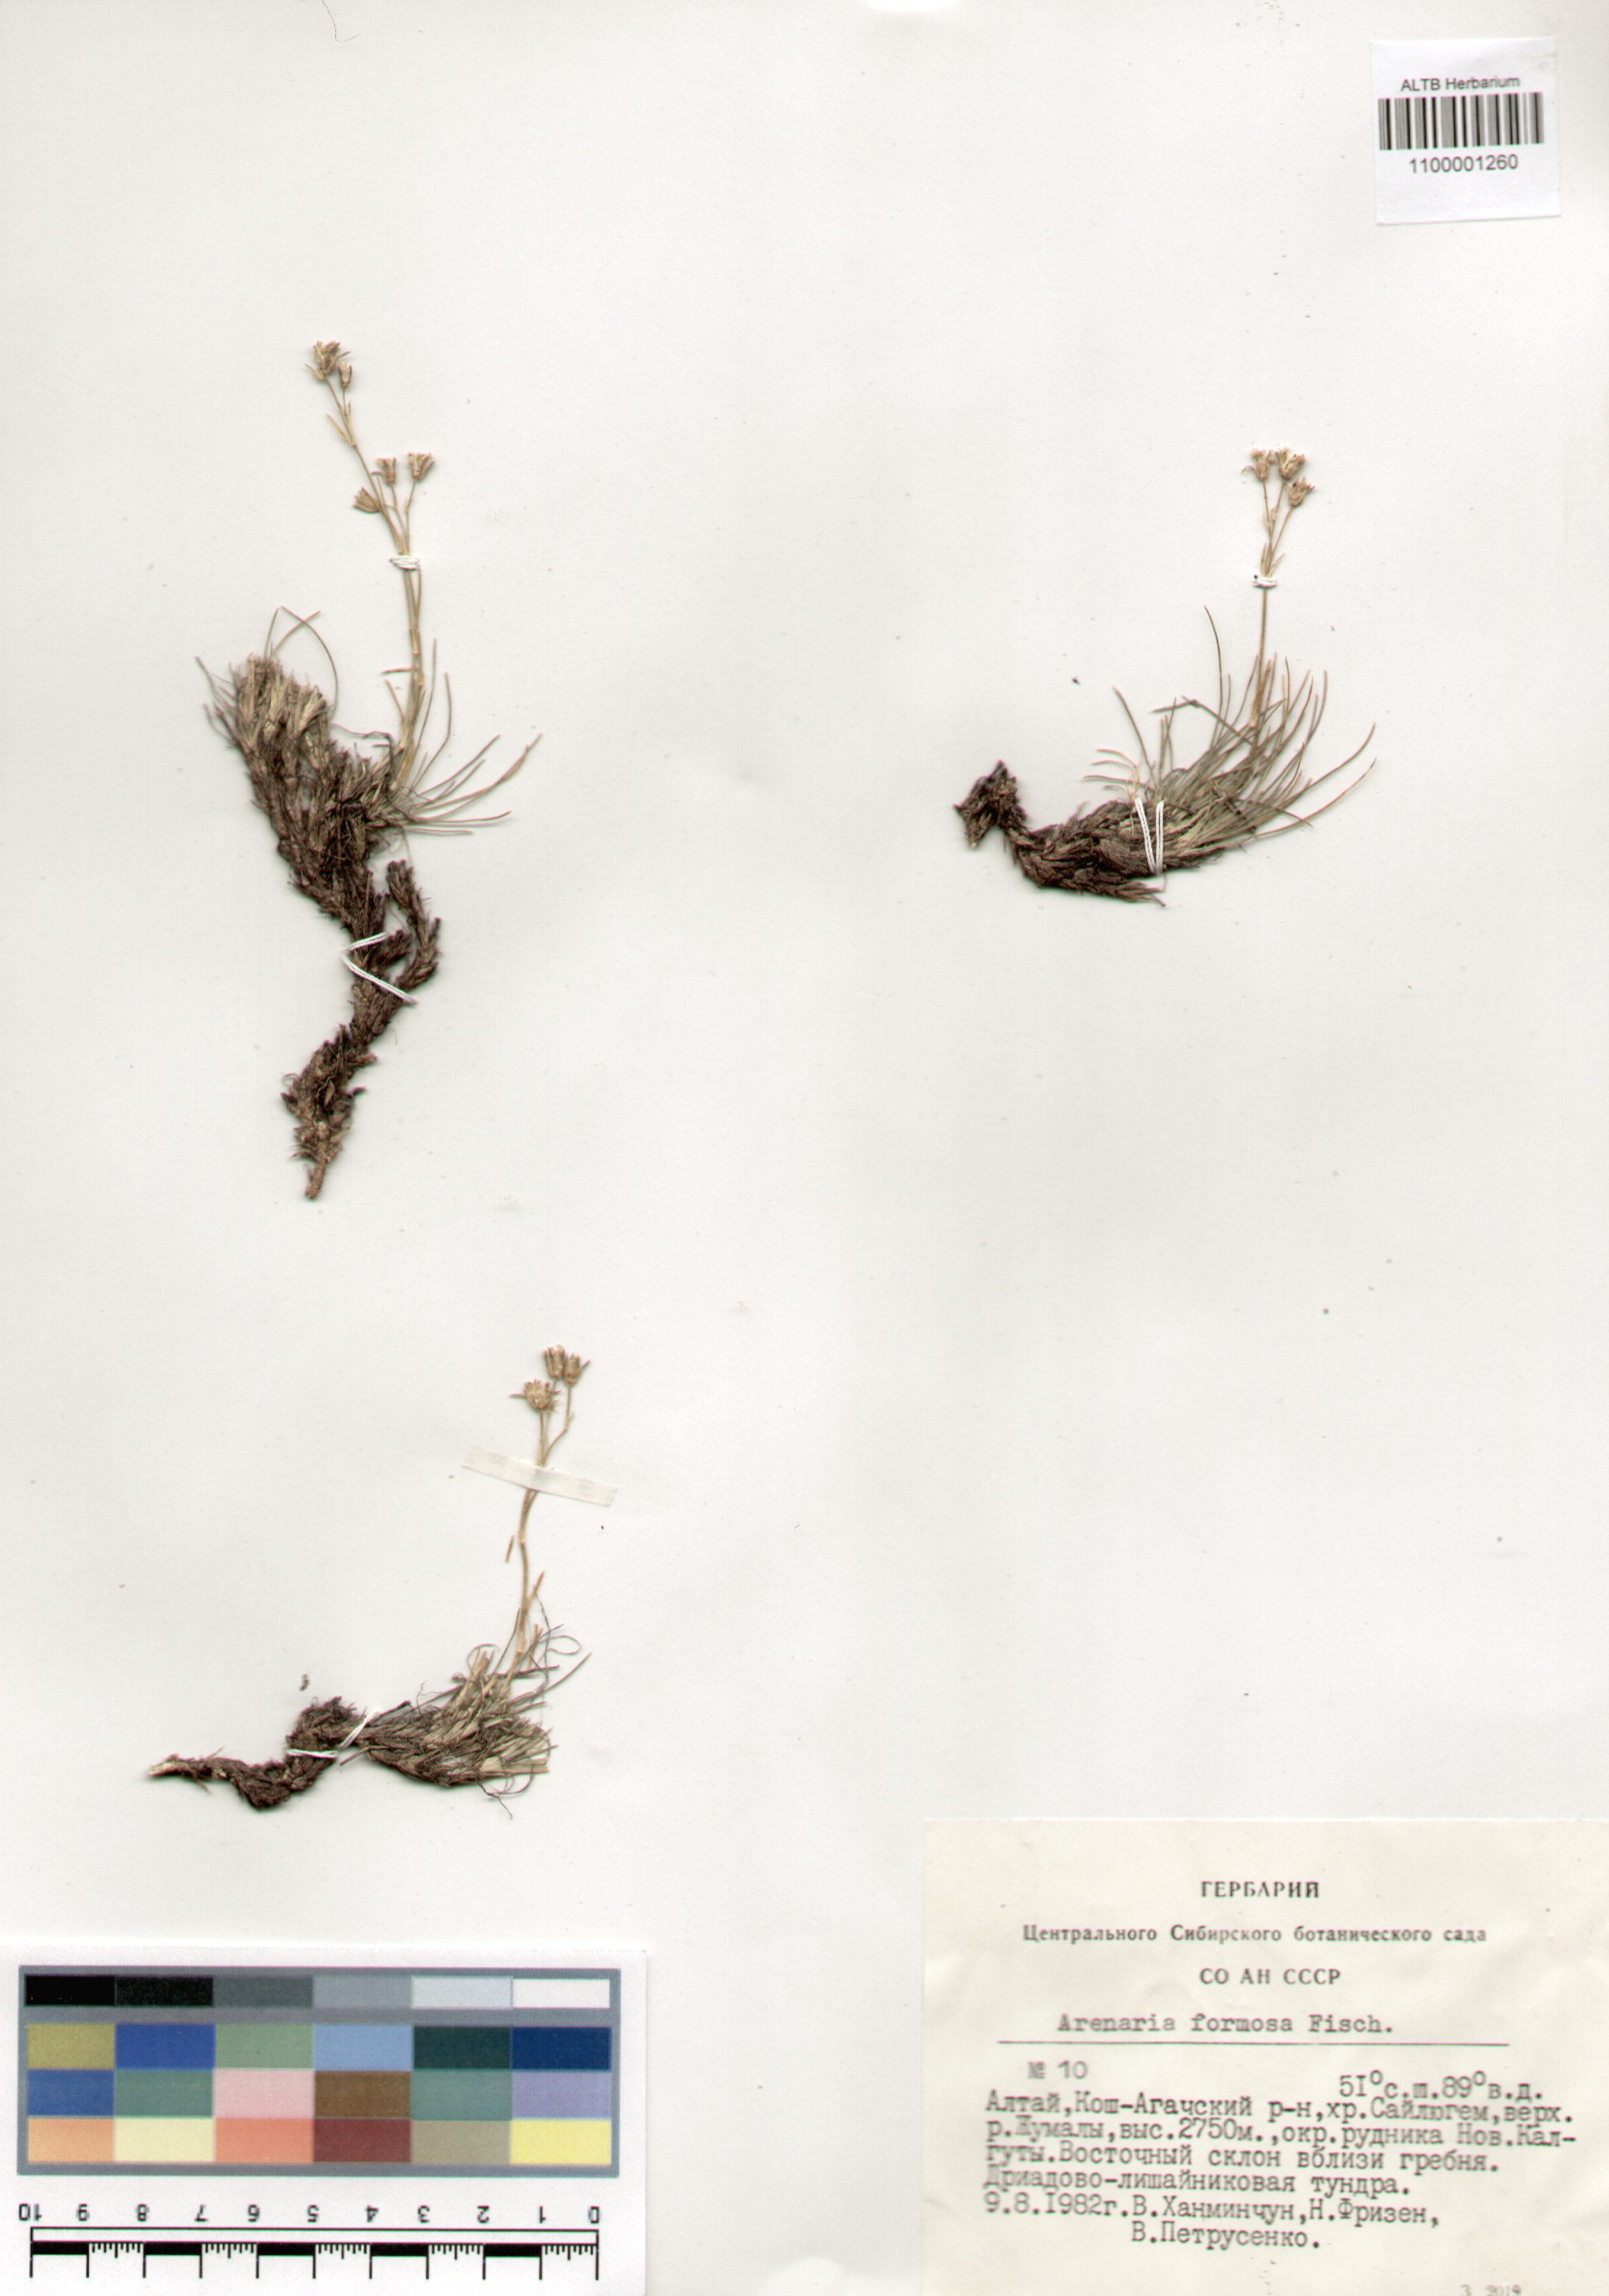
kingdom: Plantae
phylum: Tracheophyta
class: Magnoliopsida
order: Caryophyllales
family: Caryophyllaceae
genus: Eremogone
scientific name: Eremogone formosa
